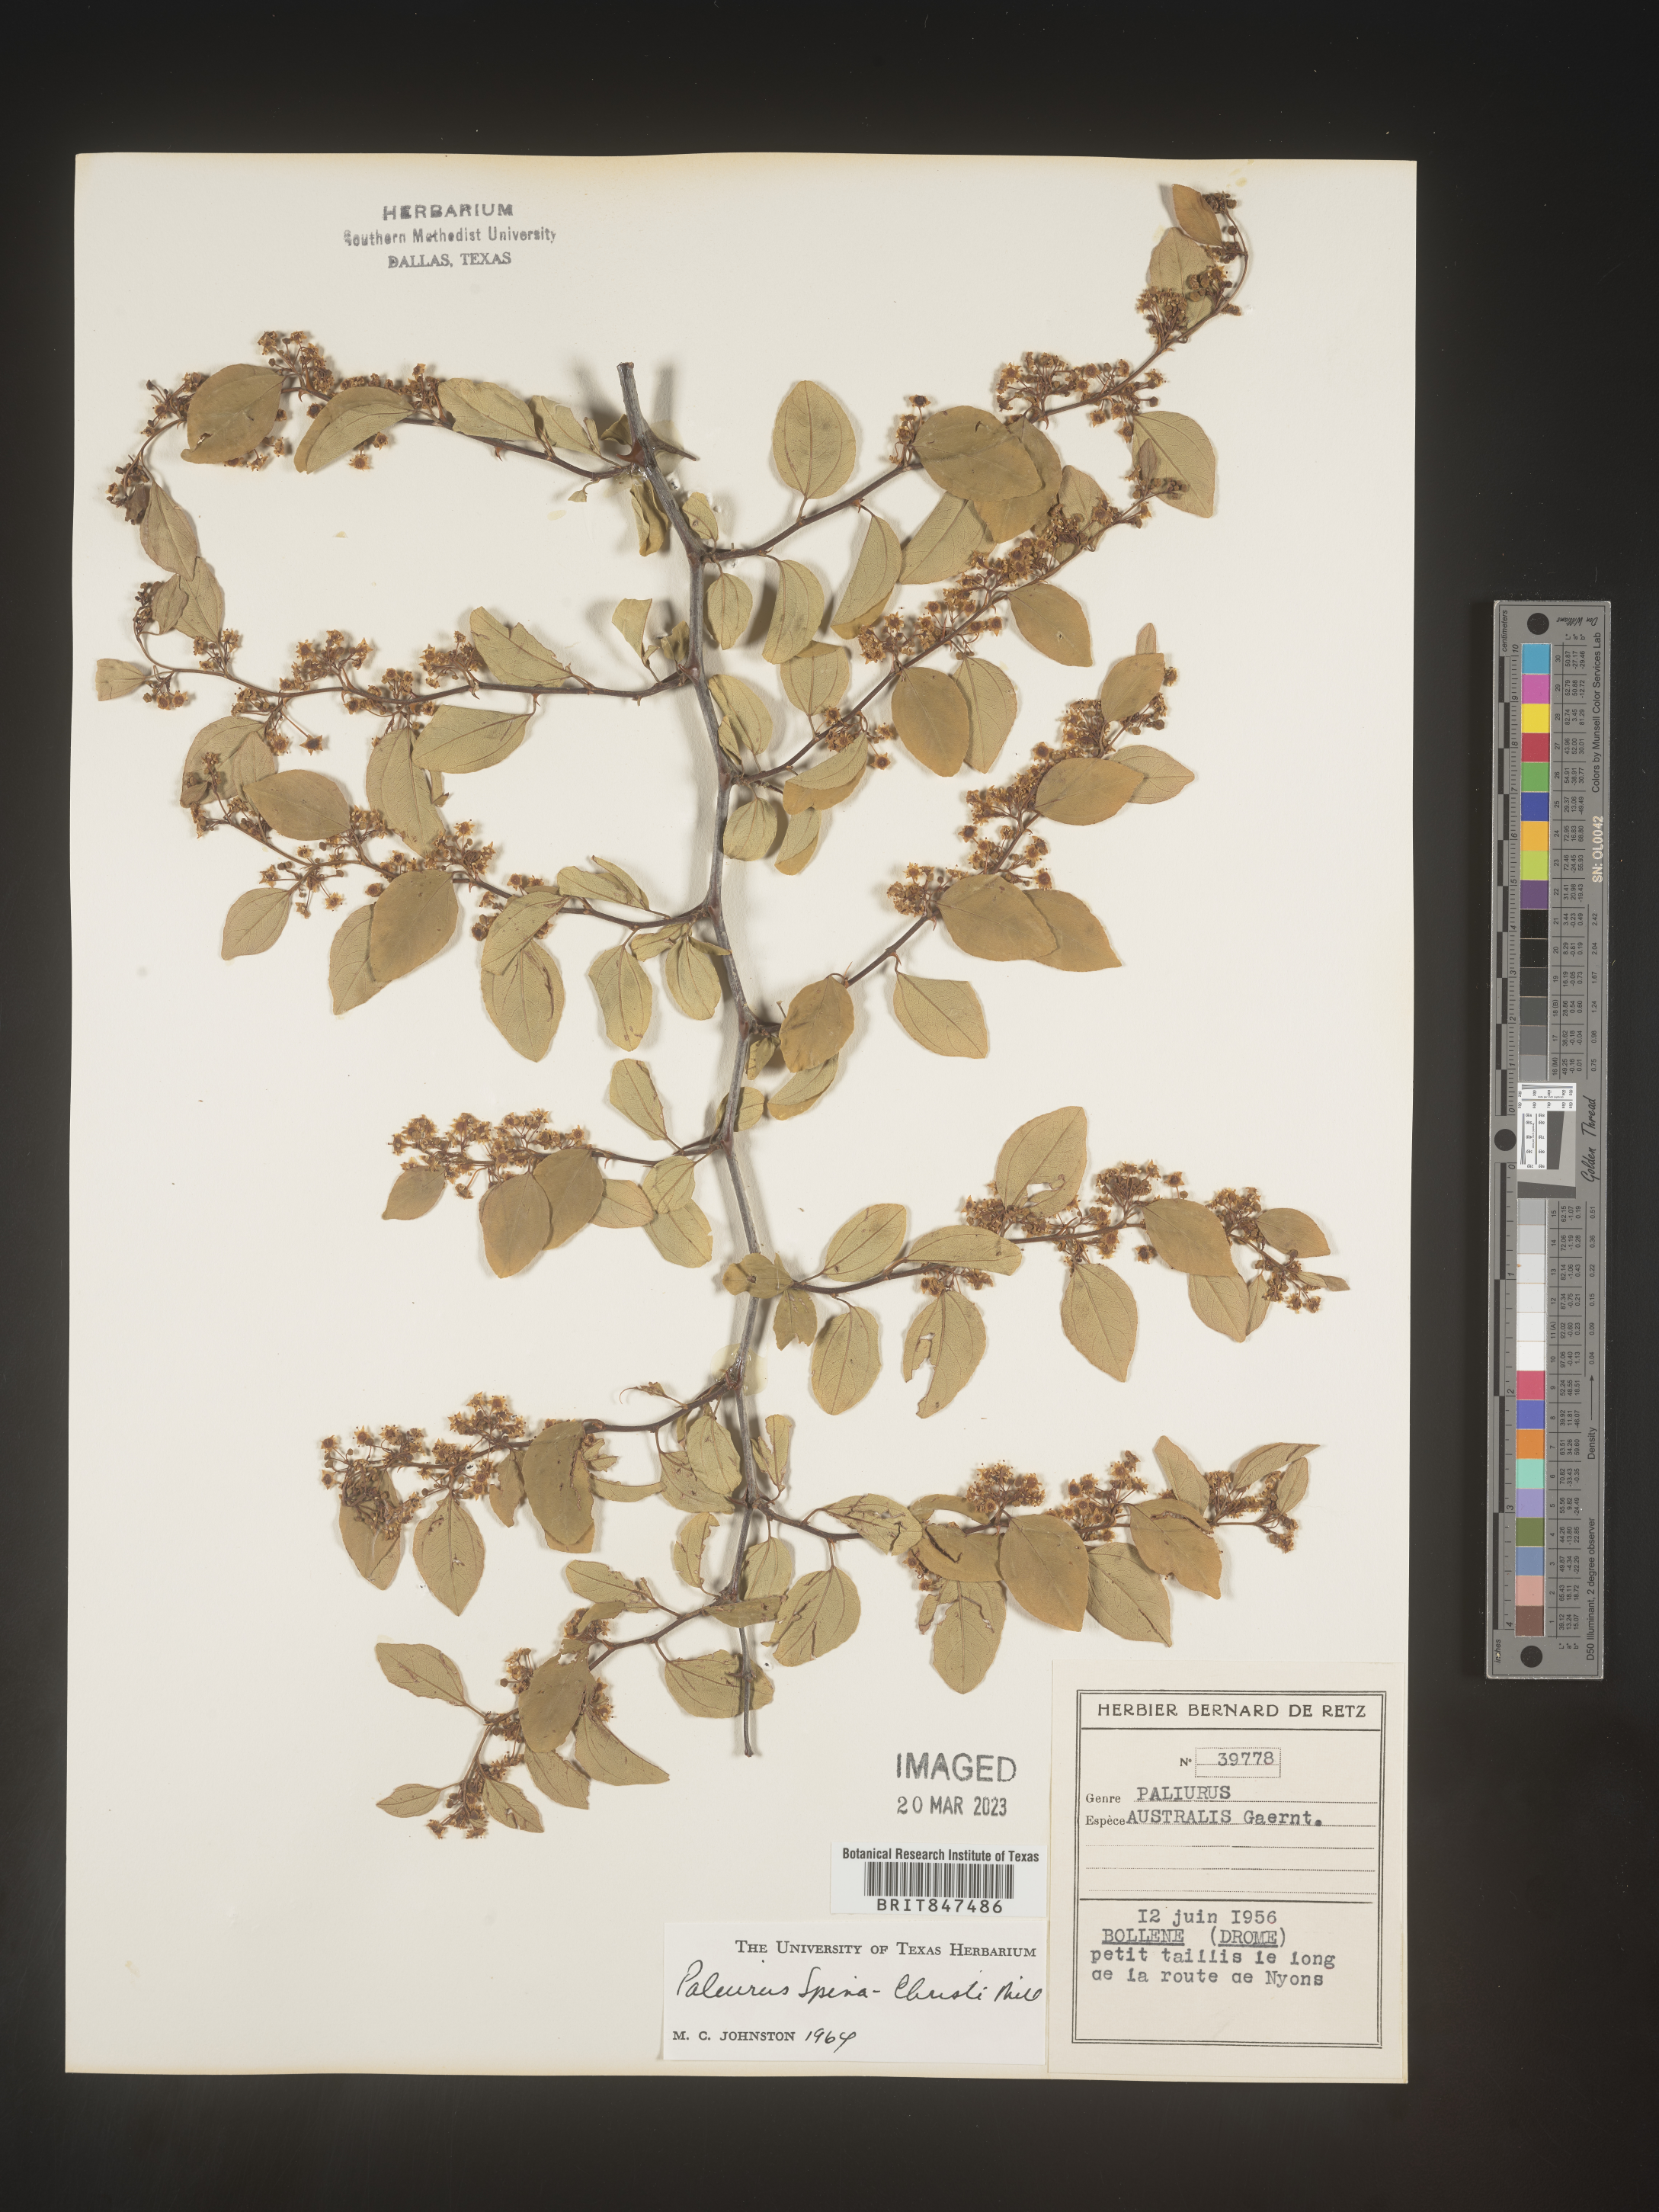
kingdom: Plantae
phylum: Tracheophyta
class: Magnoliopsida
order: Rosales
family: Rhamnaceae
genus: Paliurus
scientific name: Paliurus
